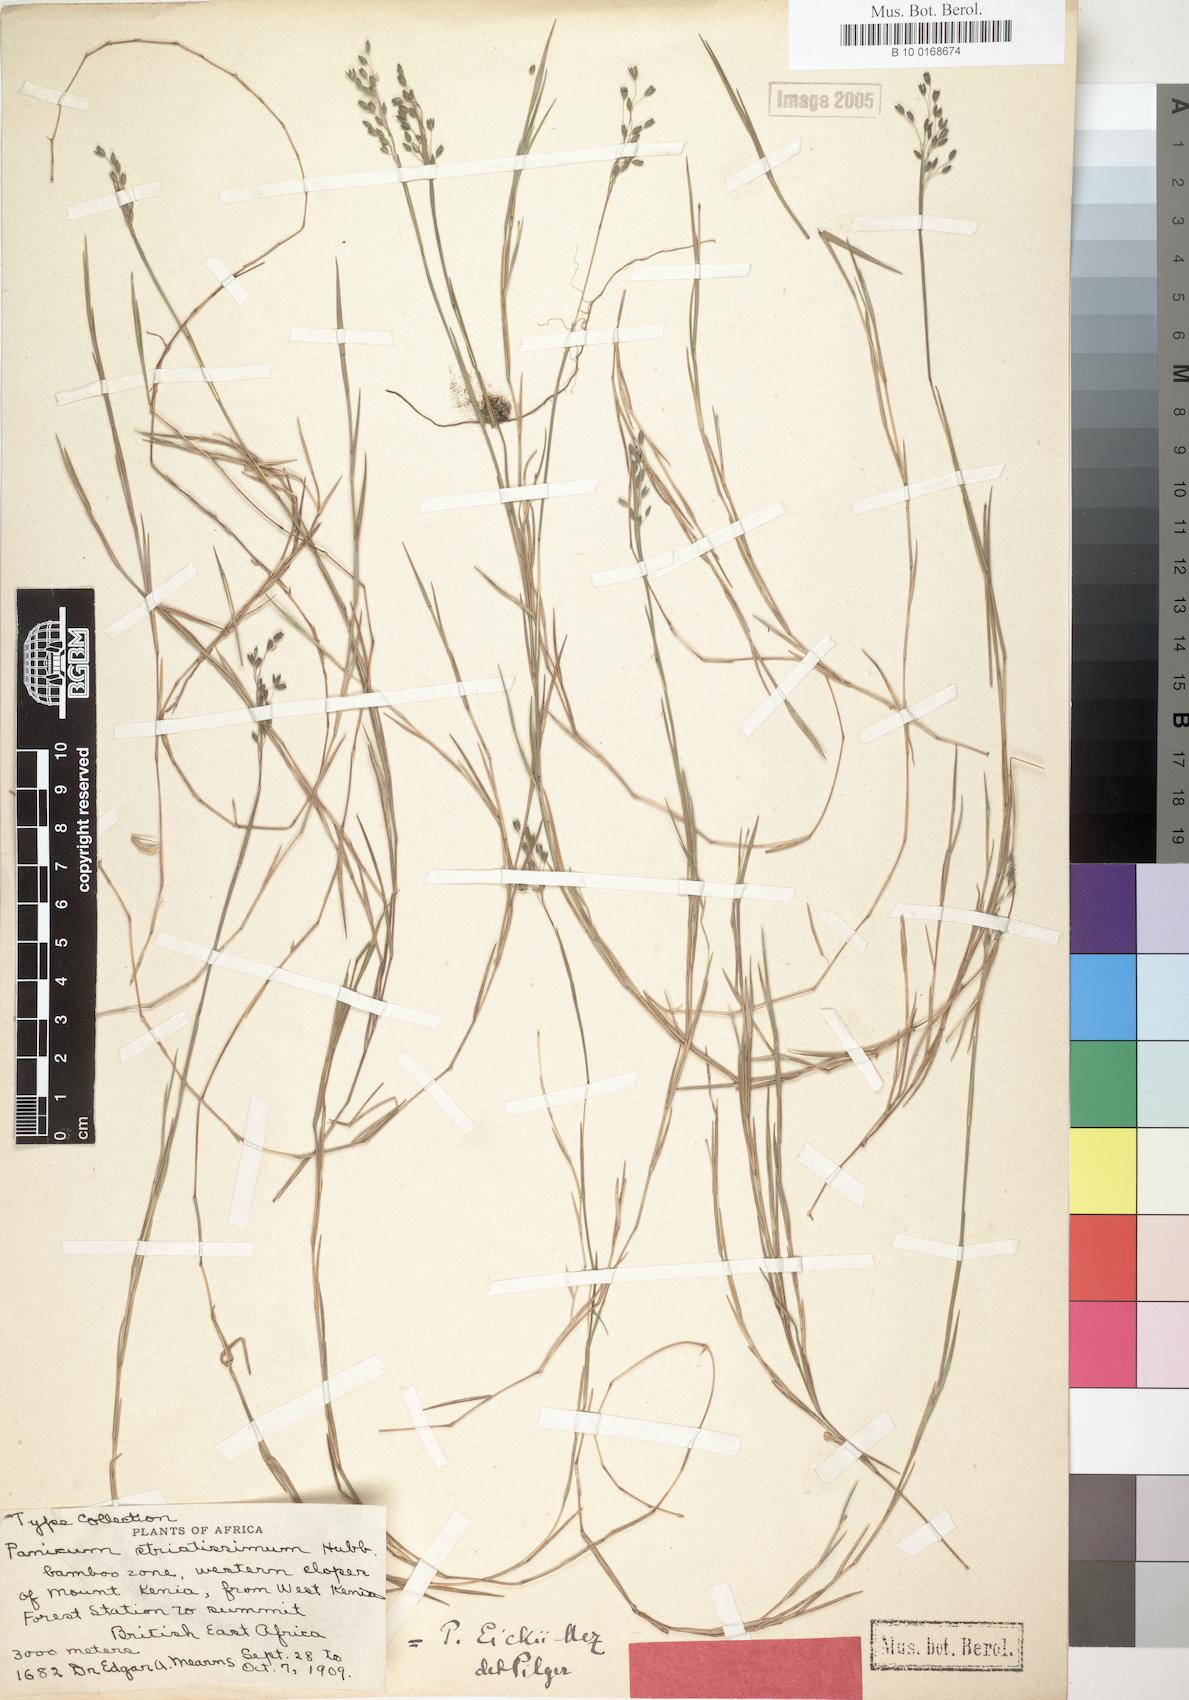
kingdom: Plantae
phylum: Tracheophyta
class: Liliopsida
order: Poales
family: Poaceae
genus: Panicum
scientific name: Panicum eickii
